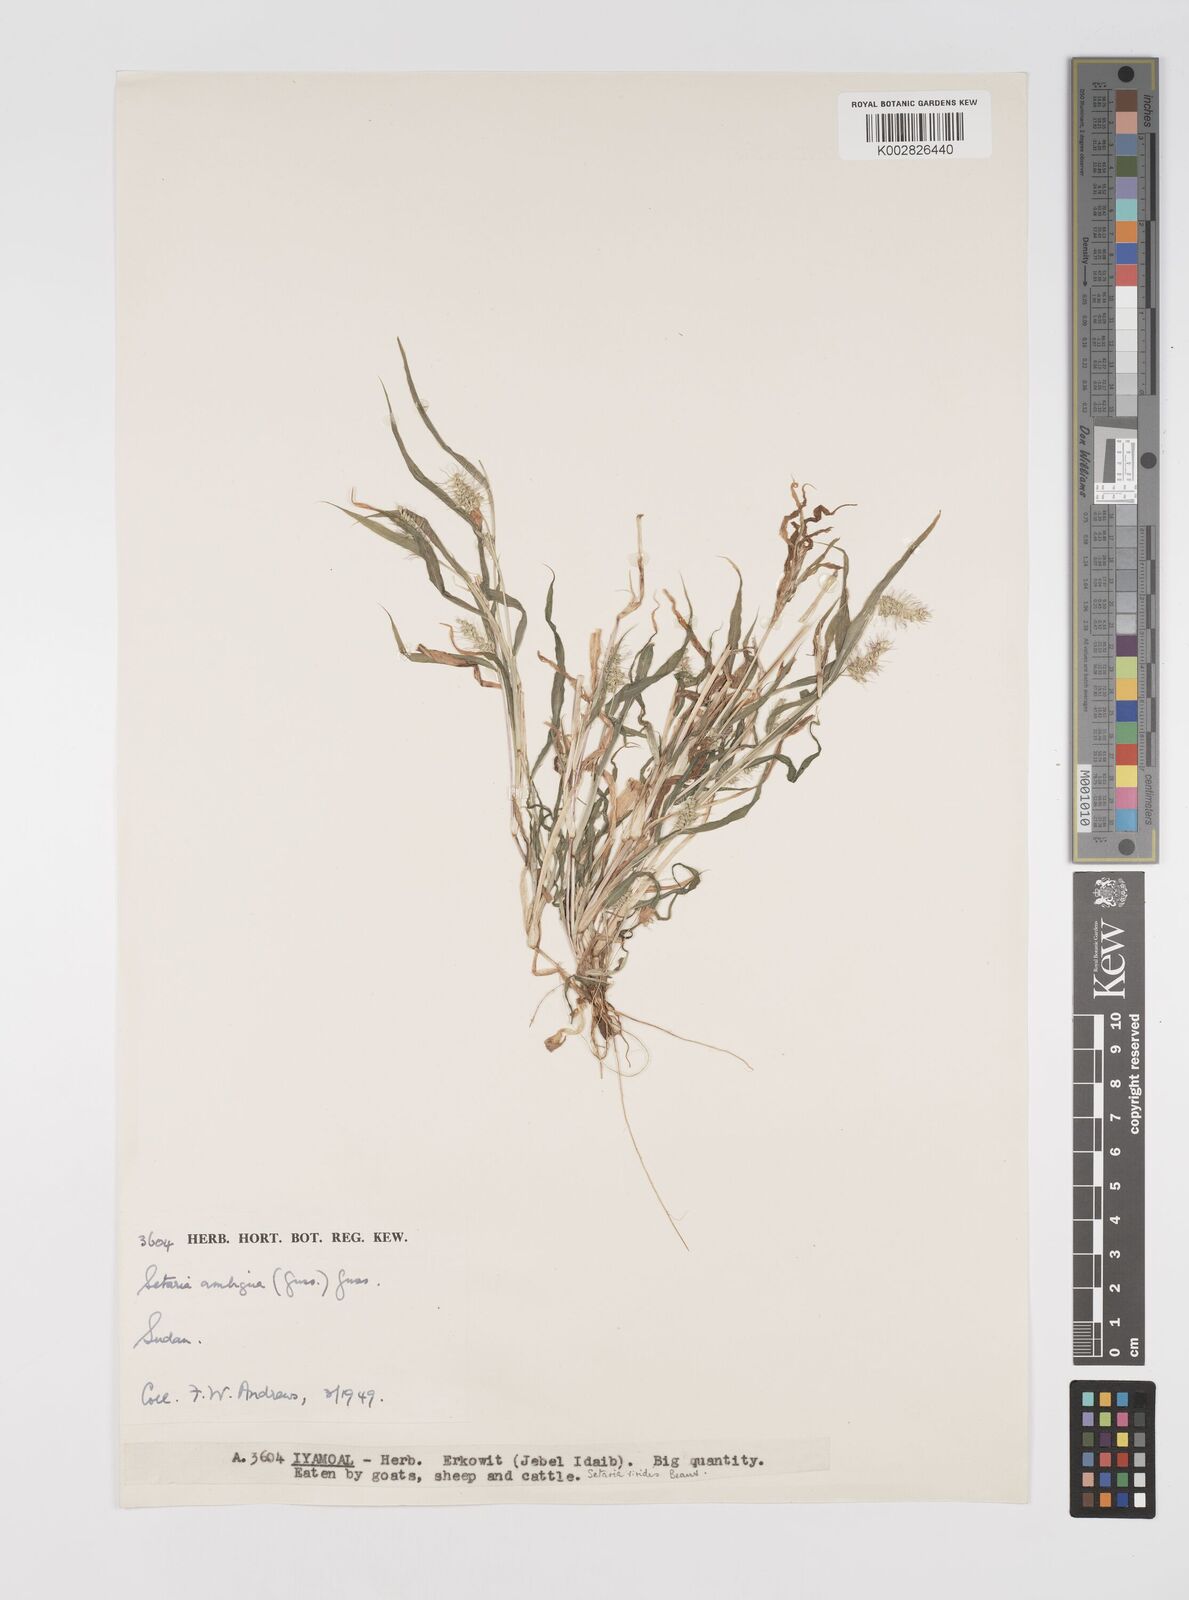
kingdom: Plantae
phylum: Tracheophyta
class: Liliopsida
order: Poales
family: Poaceae
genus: Setaria
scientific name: Setaria verticillata
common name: Hooked bristlegrass
